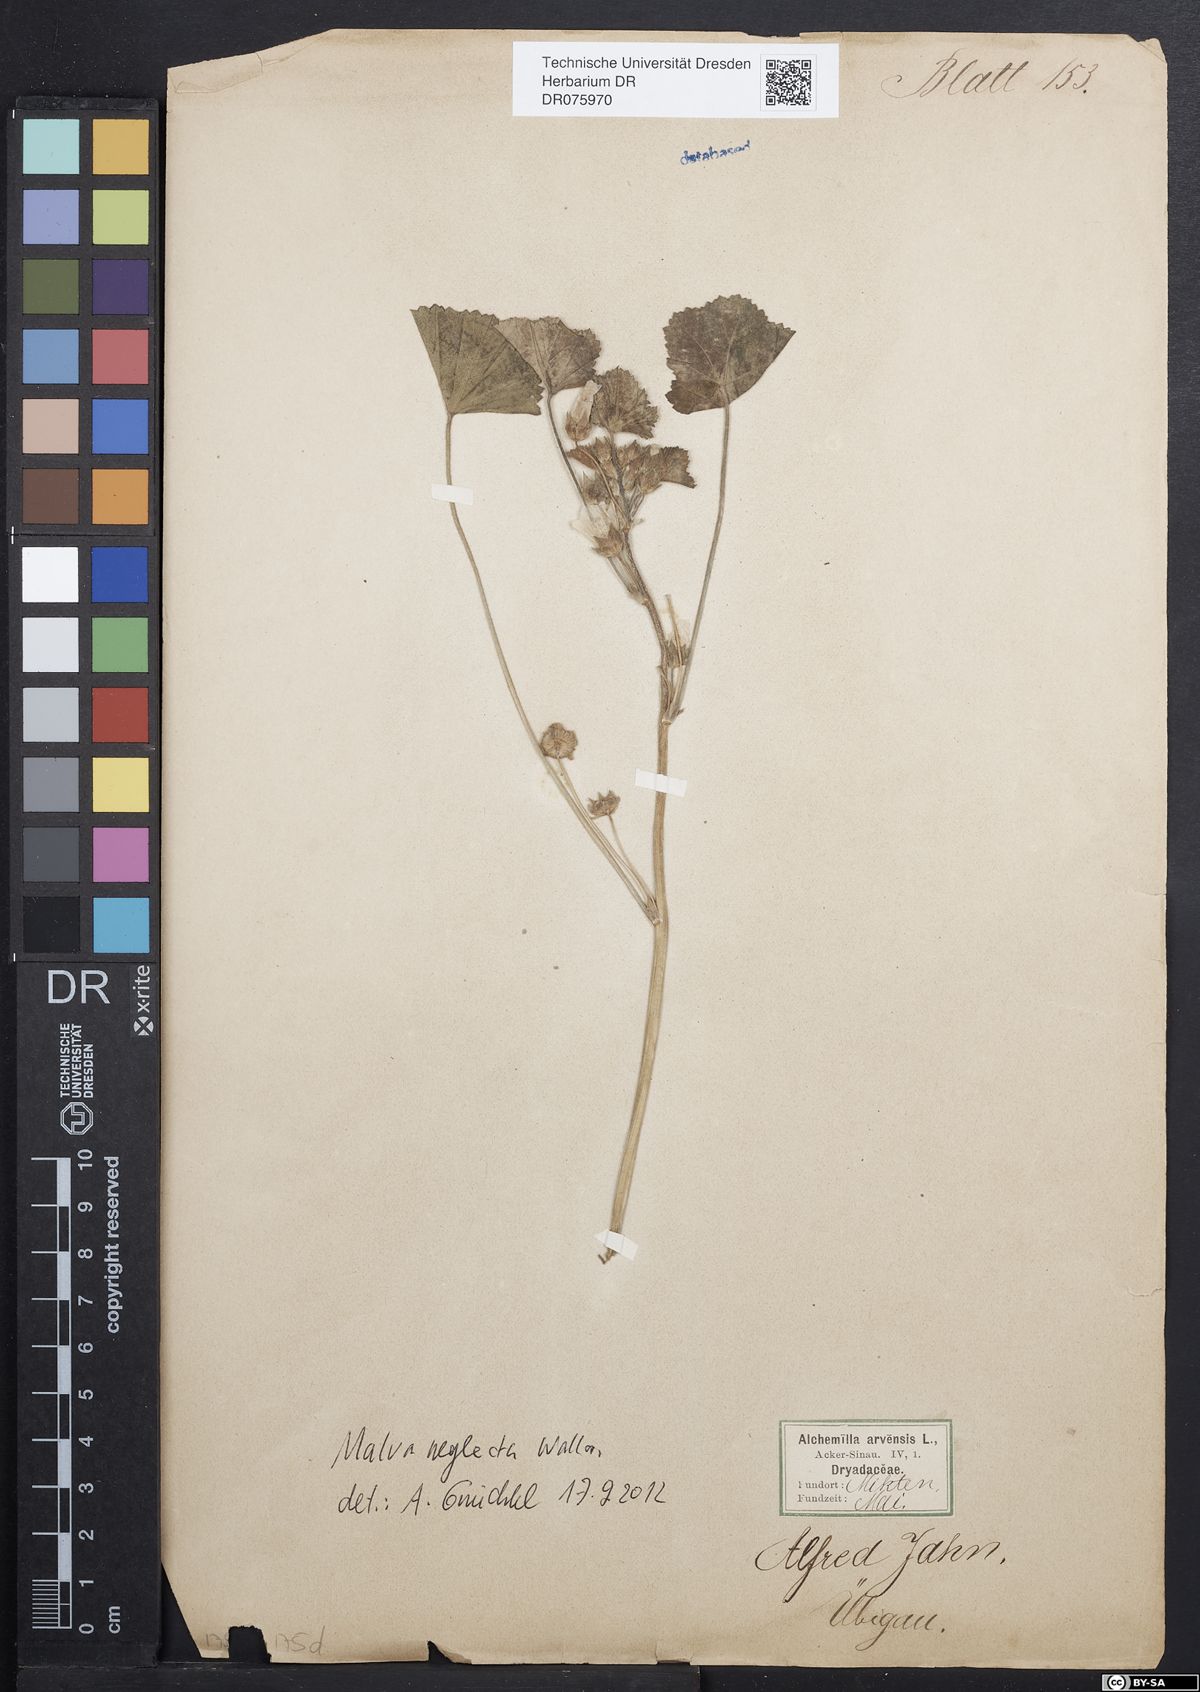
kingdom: Plantae
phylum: Tracheophyta
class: Magnoliopsida
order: Malvales
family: Malvaceae
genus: Malva
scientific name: Malva neglecta
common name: Common mallow
